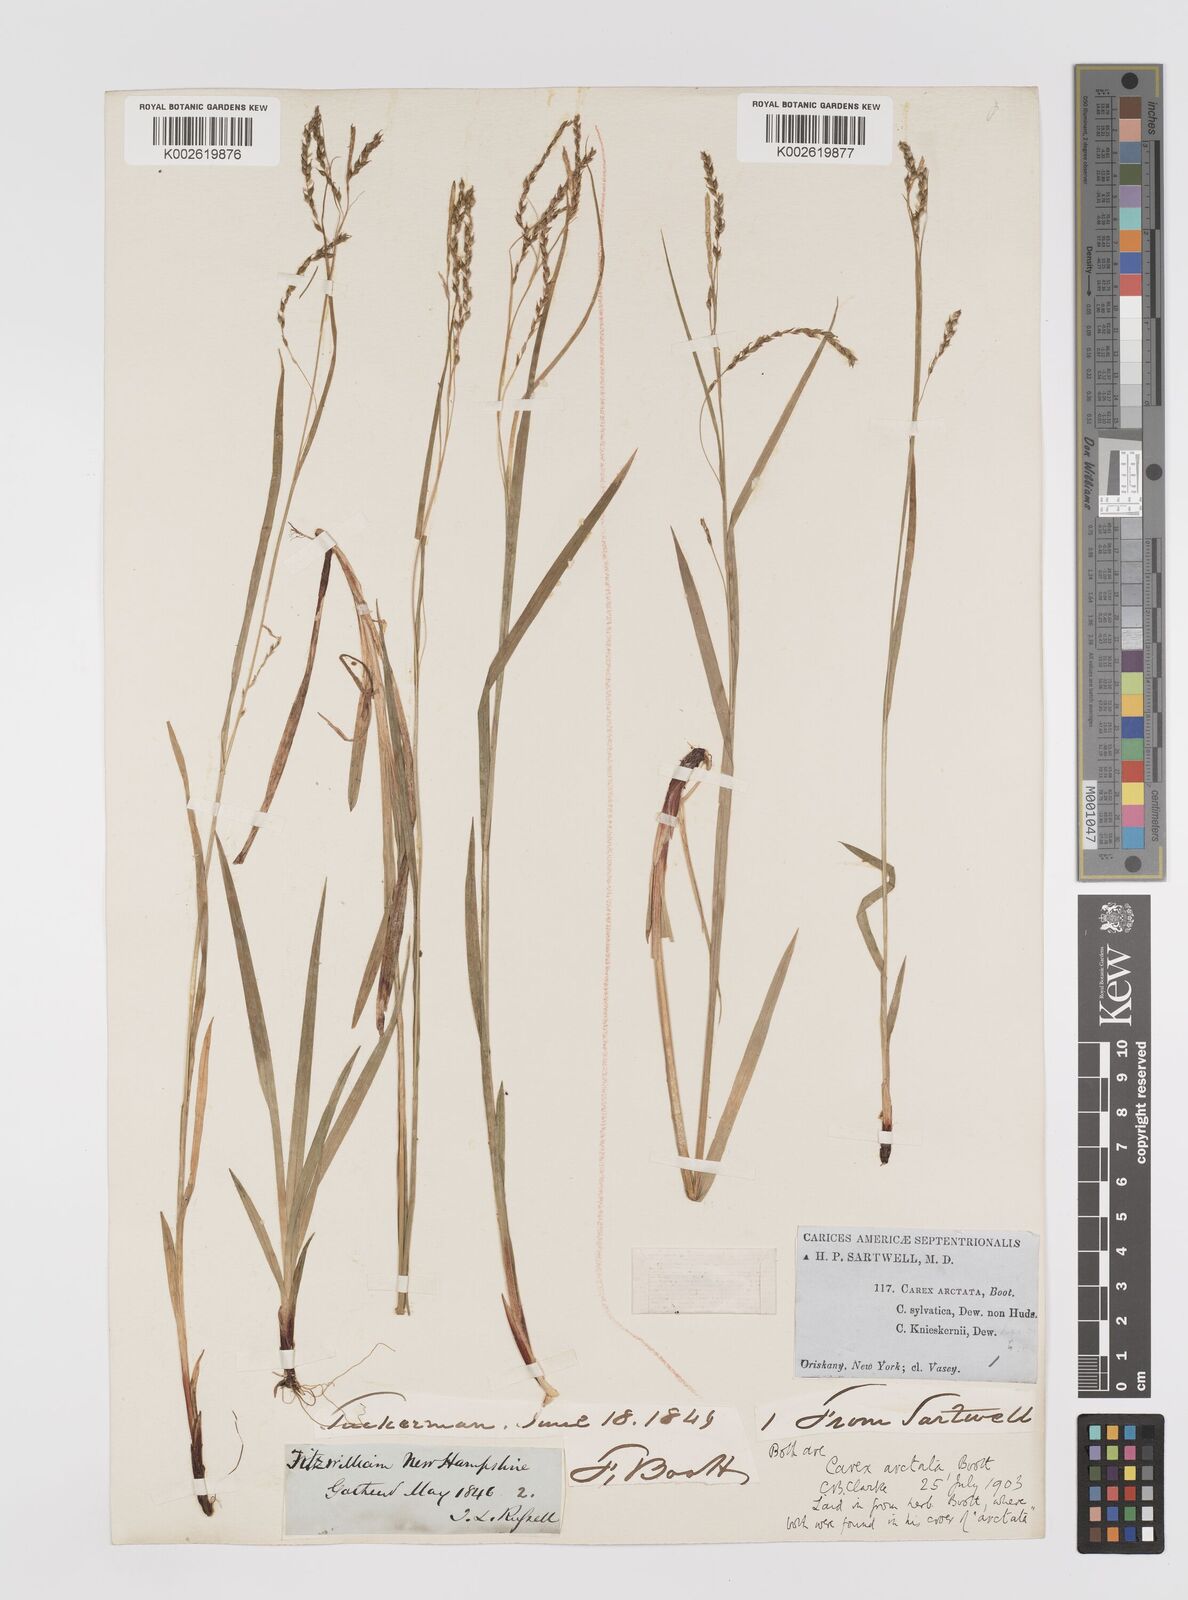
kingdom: Plantae
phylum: Tracheophyta
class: Liliopsida
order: Poales
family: Cyperaceae
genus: Carex
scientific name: Carex arctata
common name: Black sedge
